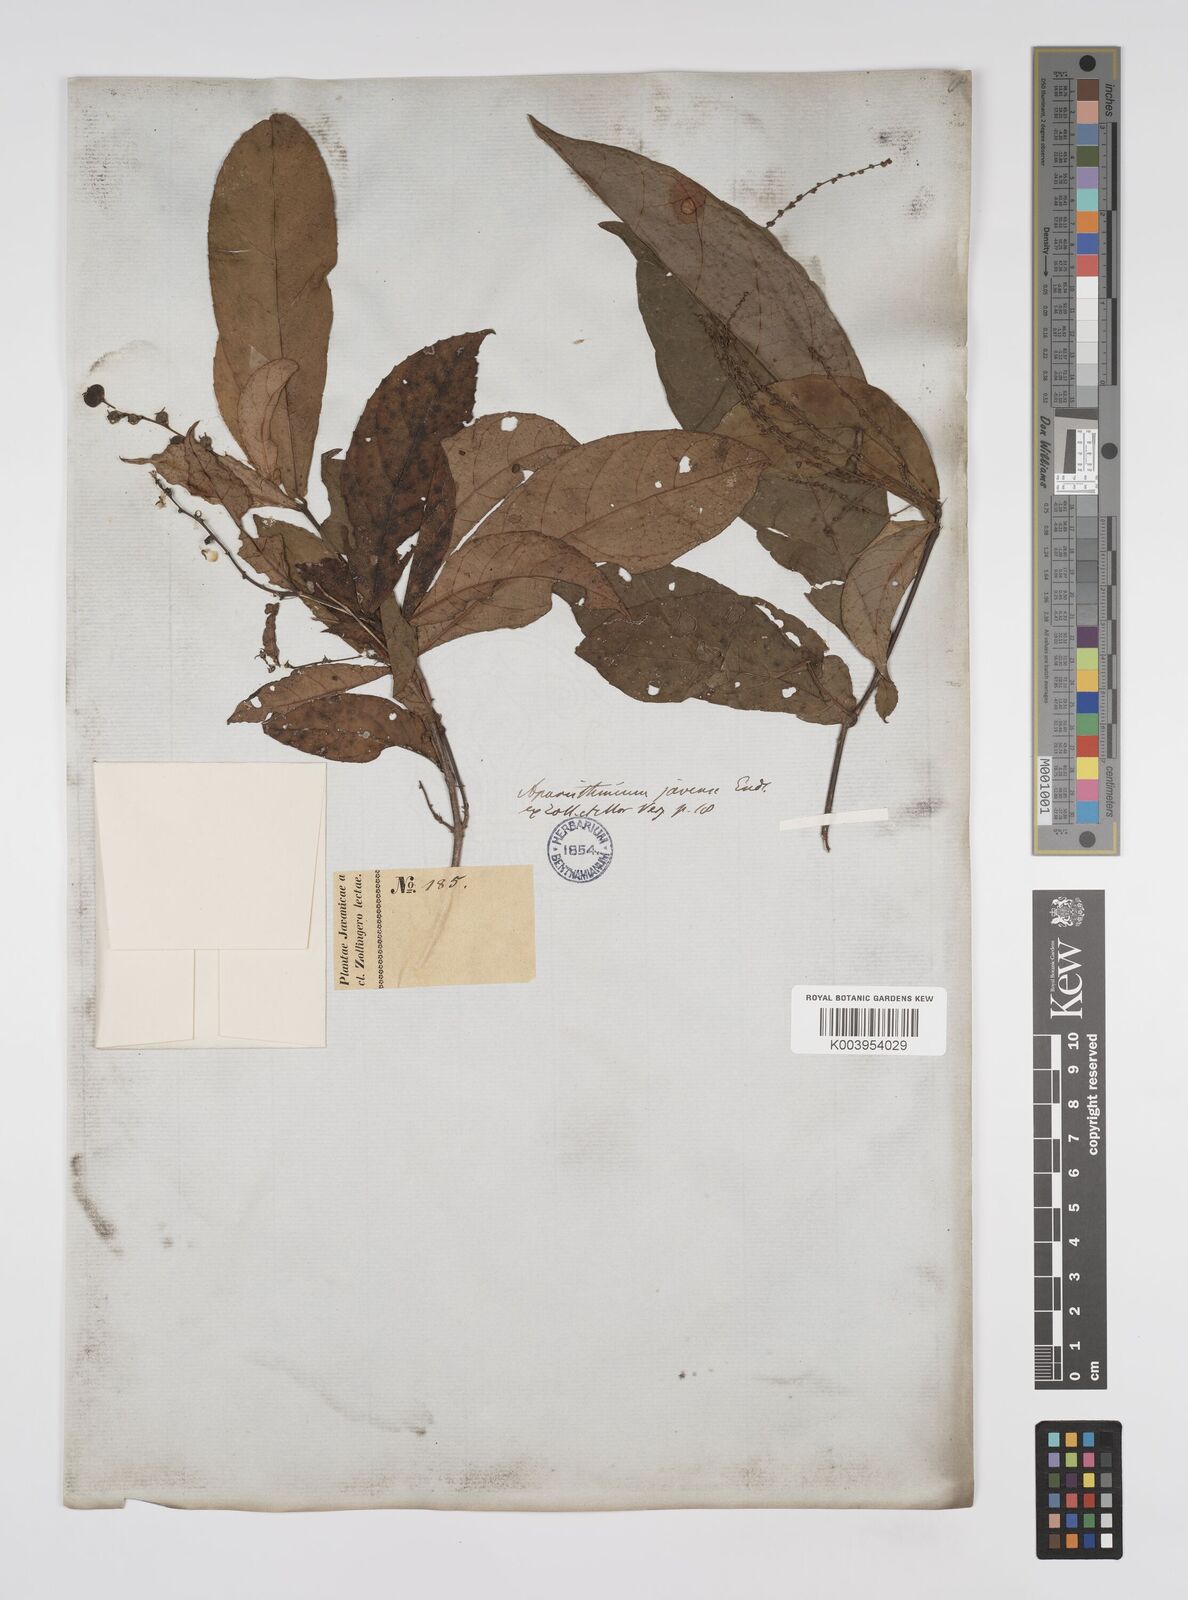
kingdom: Plantae
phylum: Tracheophyta
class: Magnoliopsida
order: Malpighiales
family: Euphorbiaceae
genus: Alchornea
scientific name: Alchornea rugosa
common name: Alchorntree
